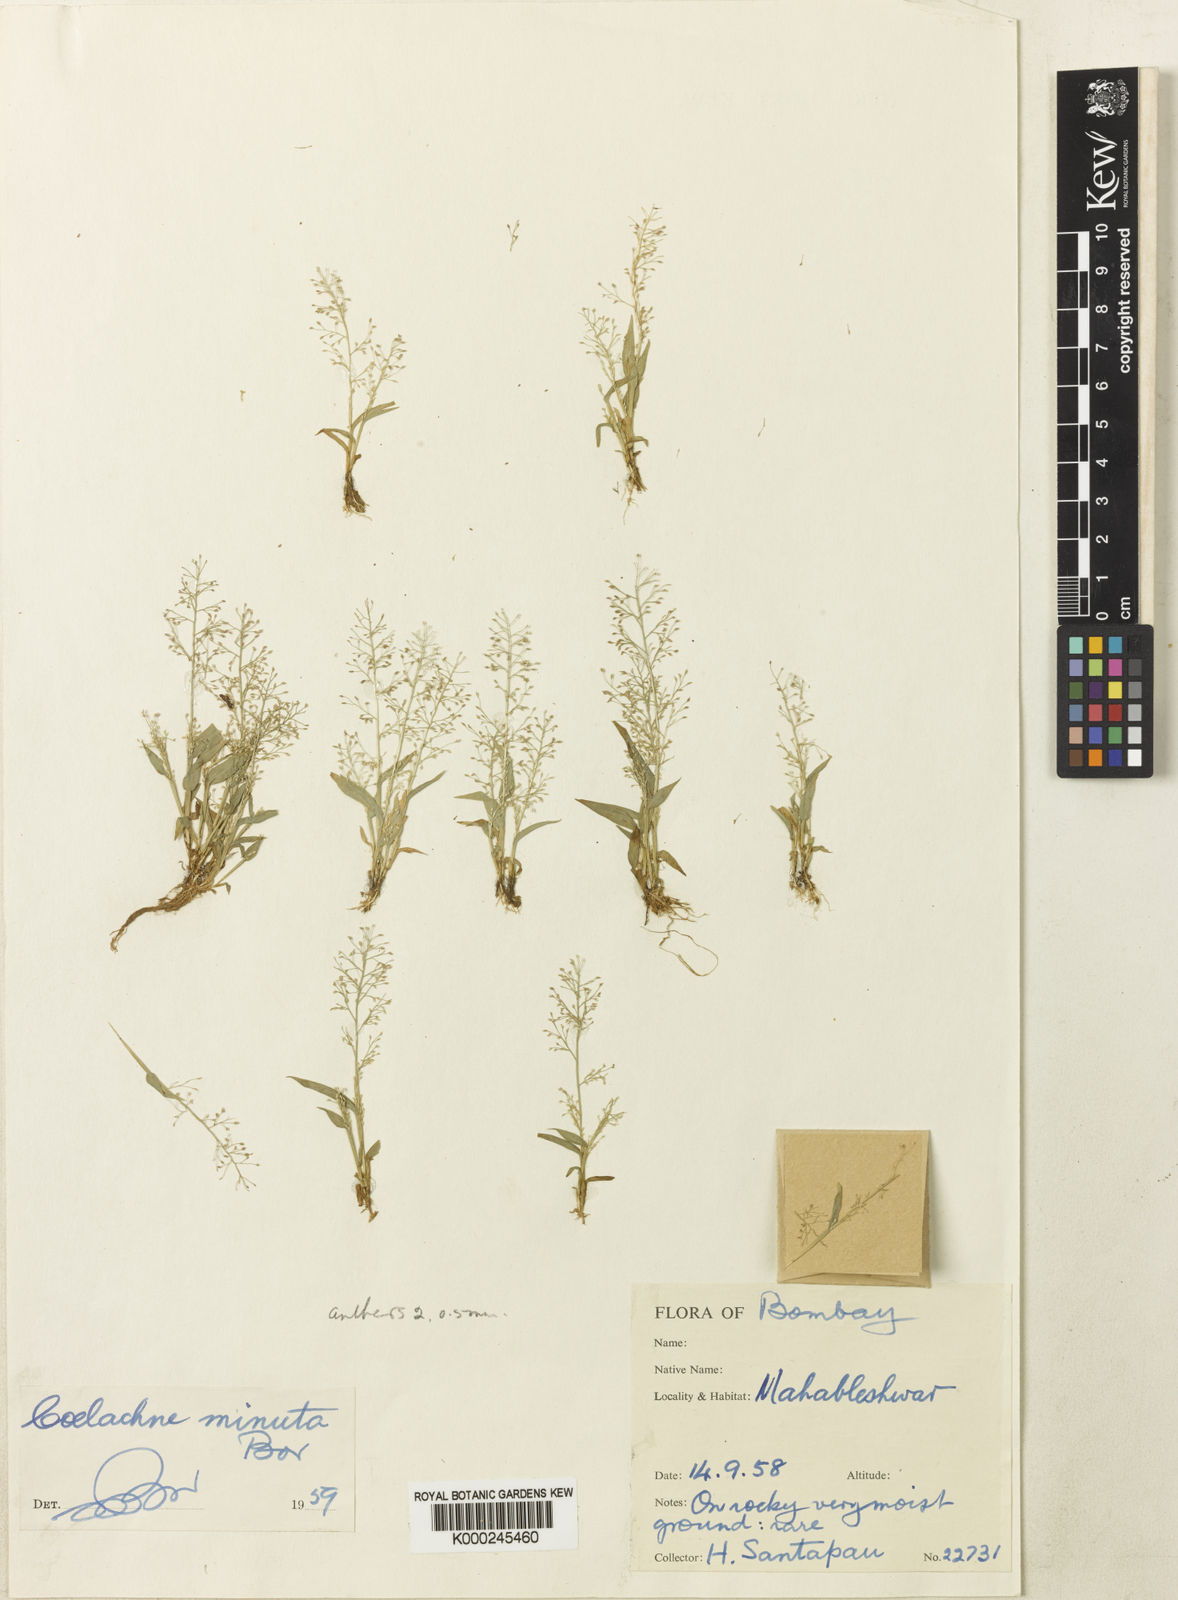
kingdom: Plantae
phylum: Tracheophyta
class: Liliopsida
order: Poales
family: Poaceae
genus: Coelachne
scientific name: Coelachne minuta
